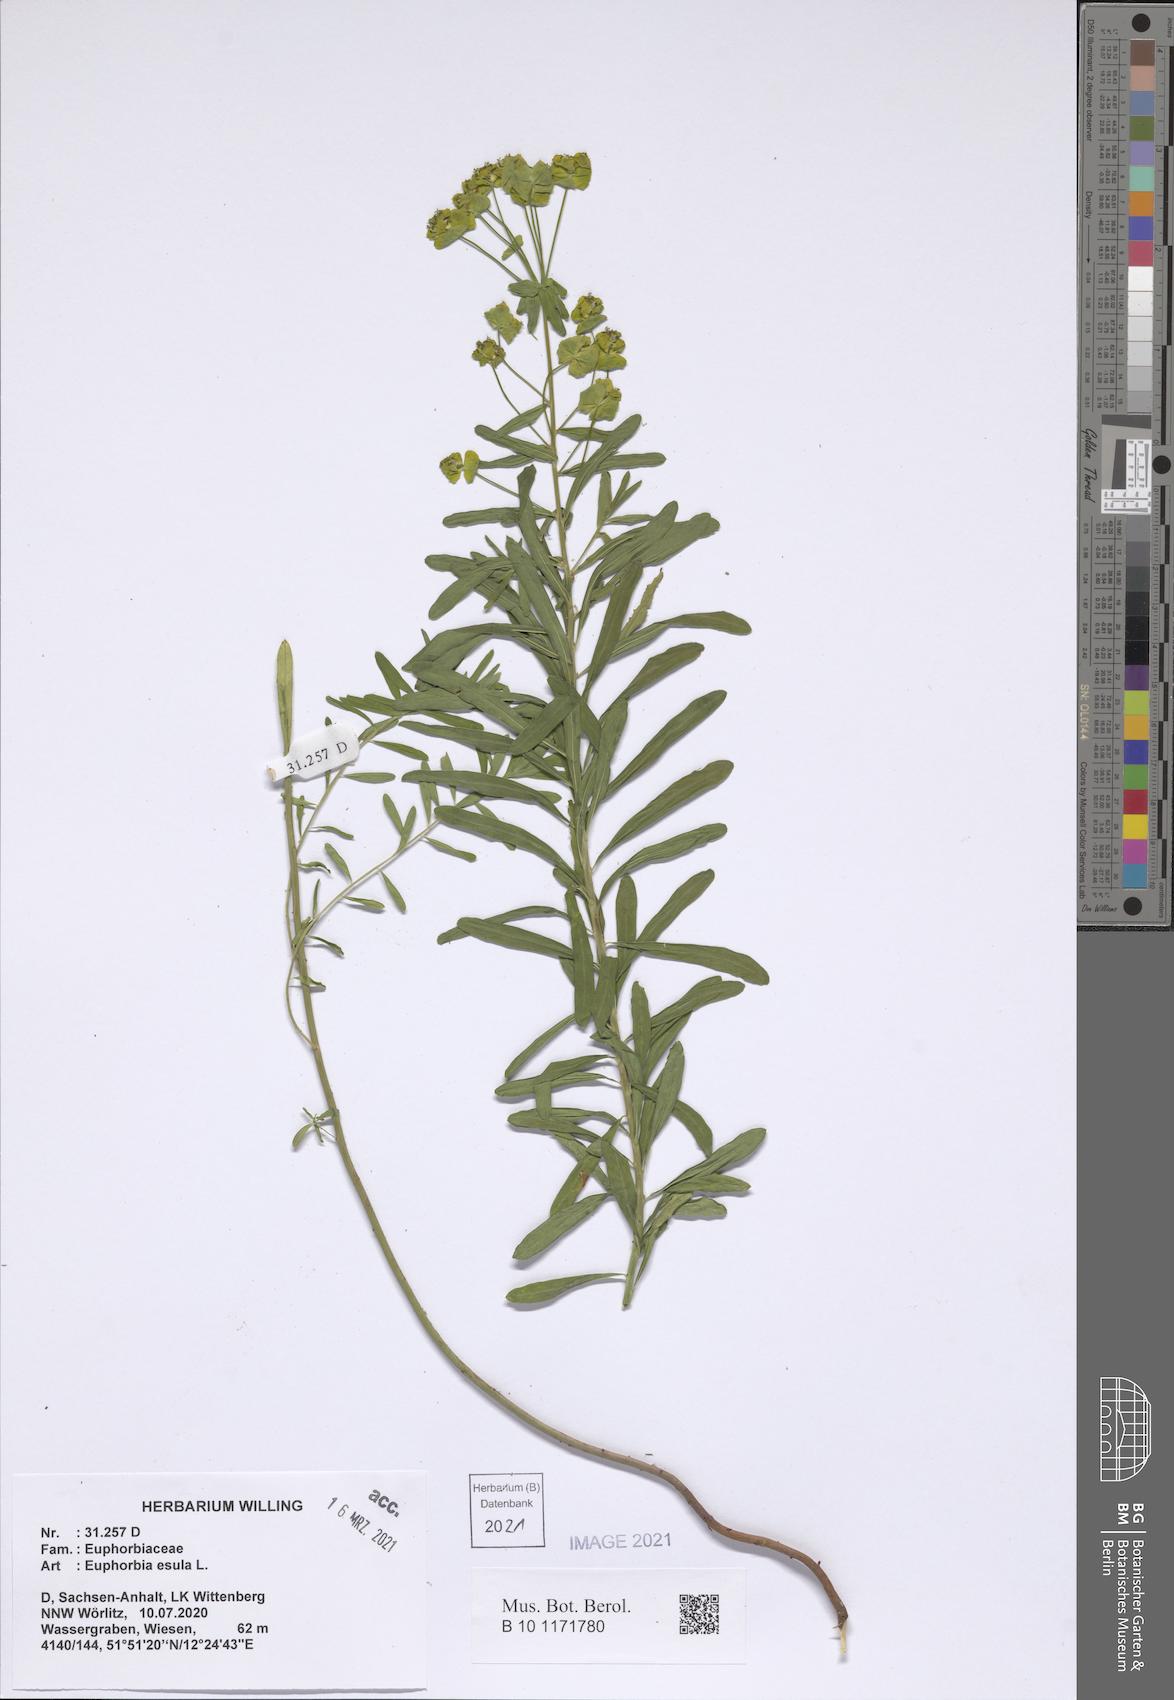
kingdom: Plantae
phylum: Tracheophyta
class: Magnoliopsida
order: Malpighiales
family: Euphorbiaceae
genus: Euphorbia
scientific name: Euphorbia esula
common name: Leafy spurge
